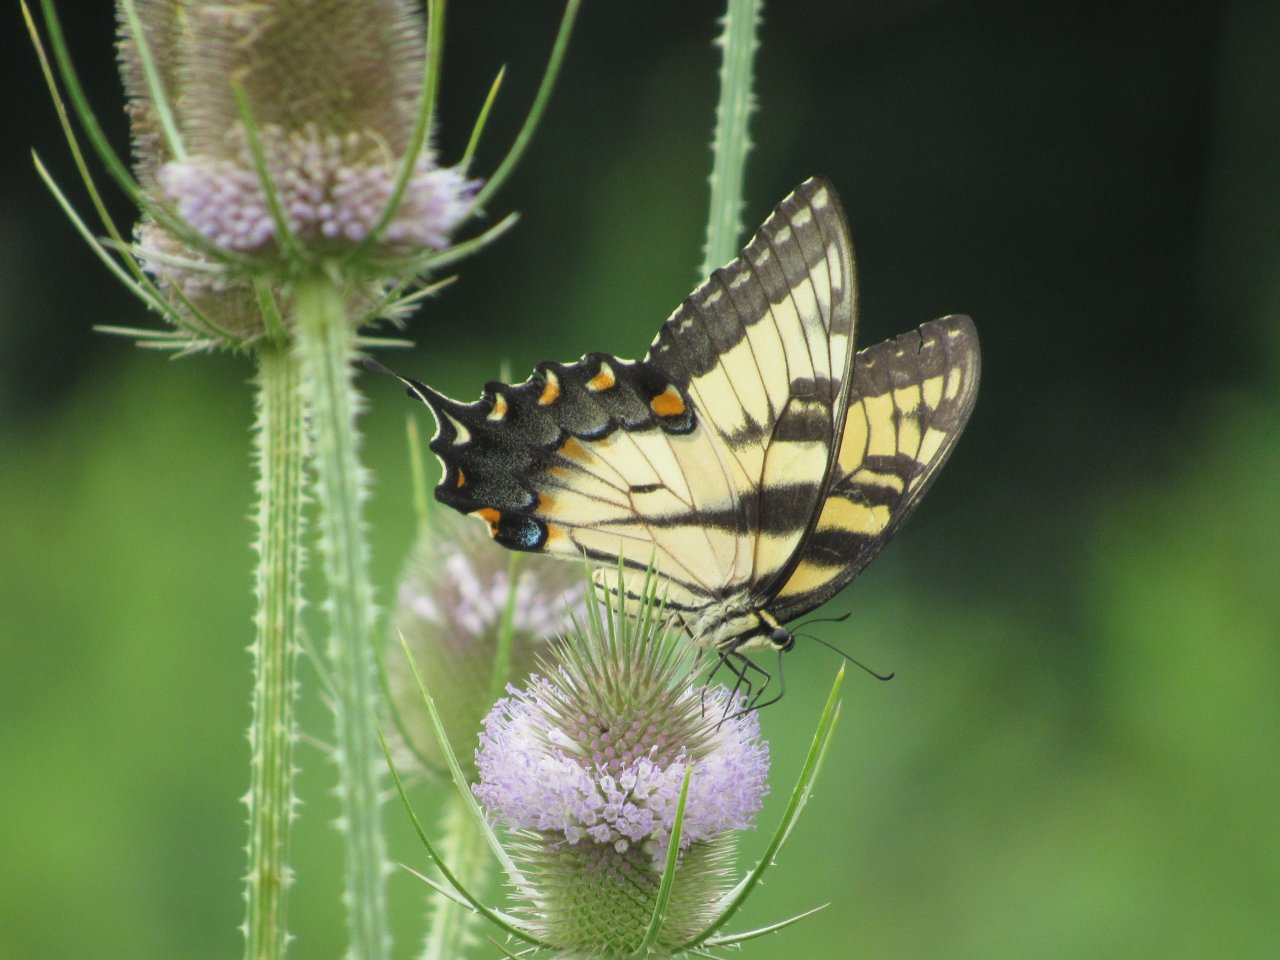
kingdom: Animalia
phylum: Arthropoda
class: Insecta
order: Lepidoptera
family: Papilionidae
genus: Pterourus
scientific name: Pterourus glaucus
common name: Eastern Tiger Swallowtail
